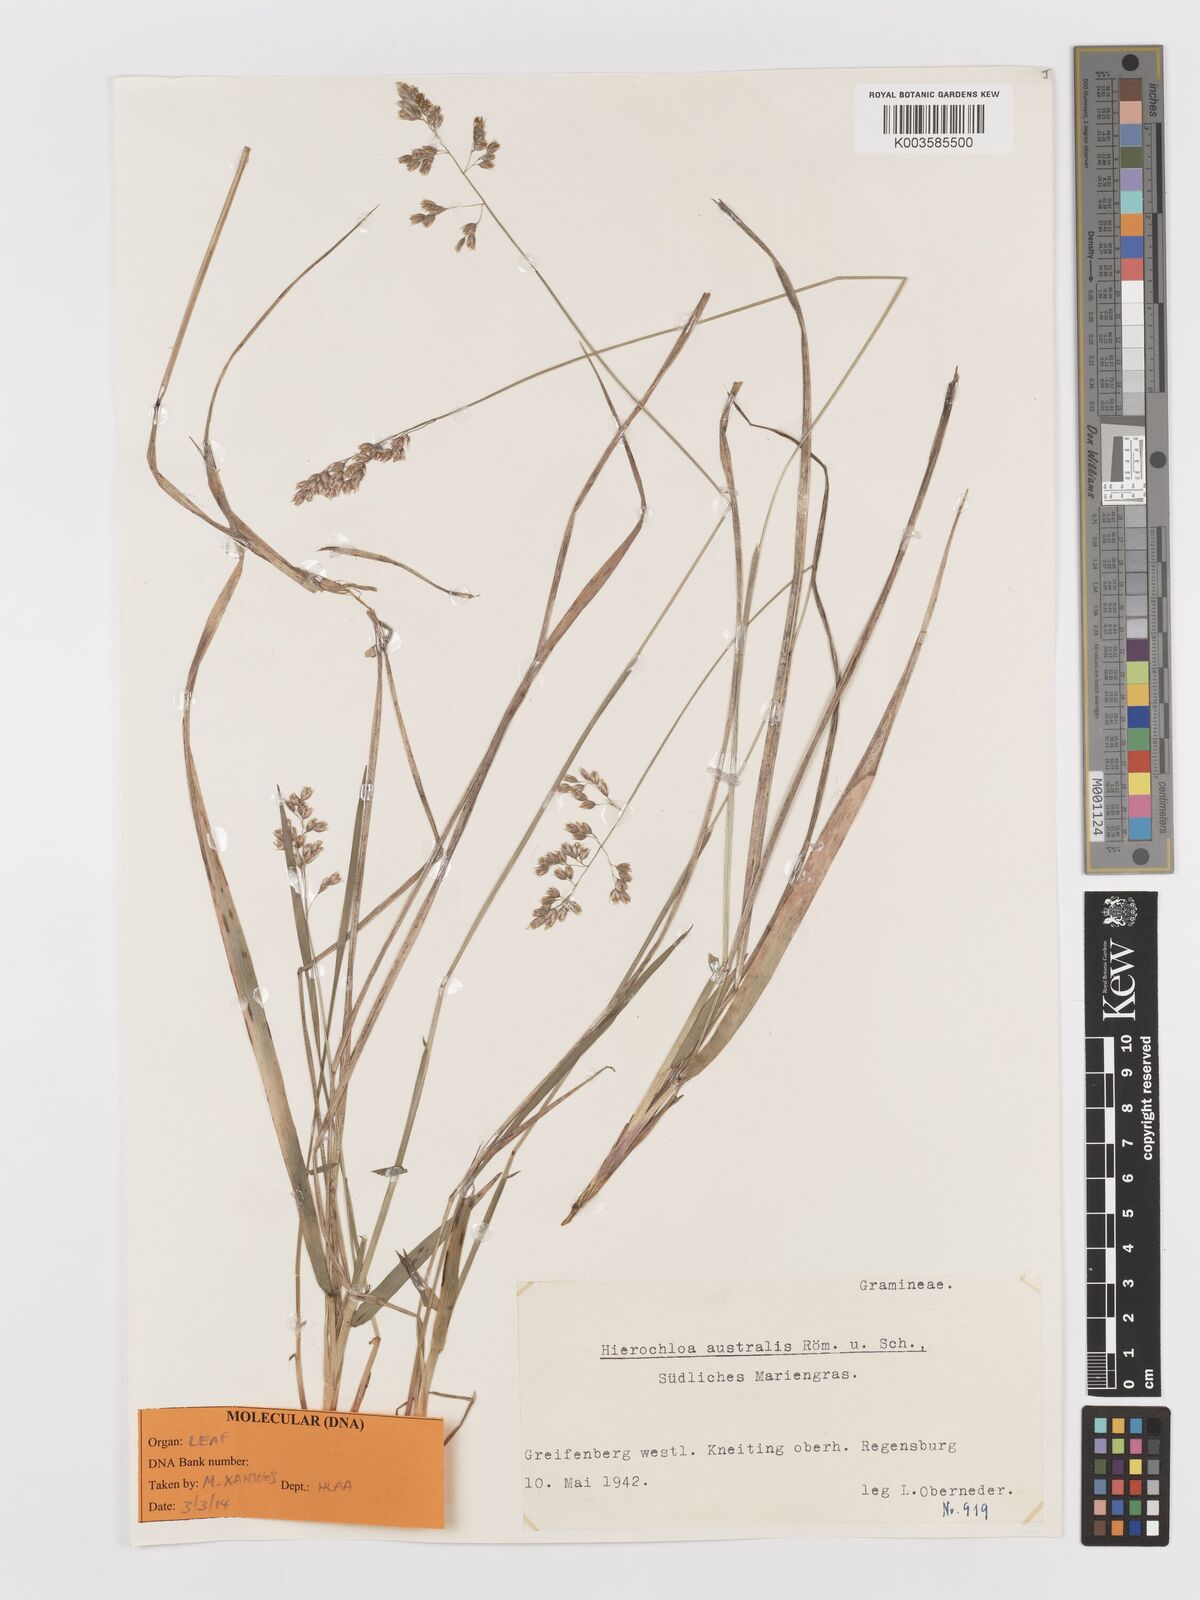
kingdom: Plantae
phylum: Tracheophyta
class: Liliopsida
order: Poales
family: Poaceae
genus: Anthoxanthum
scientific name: Anthoxanthum australe
